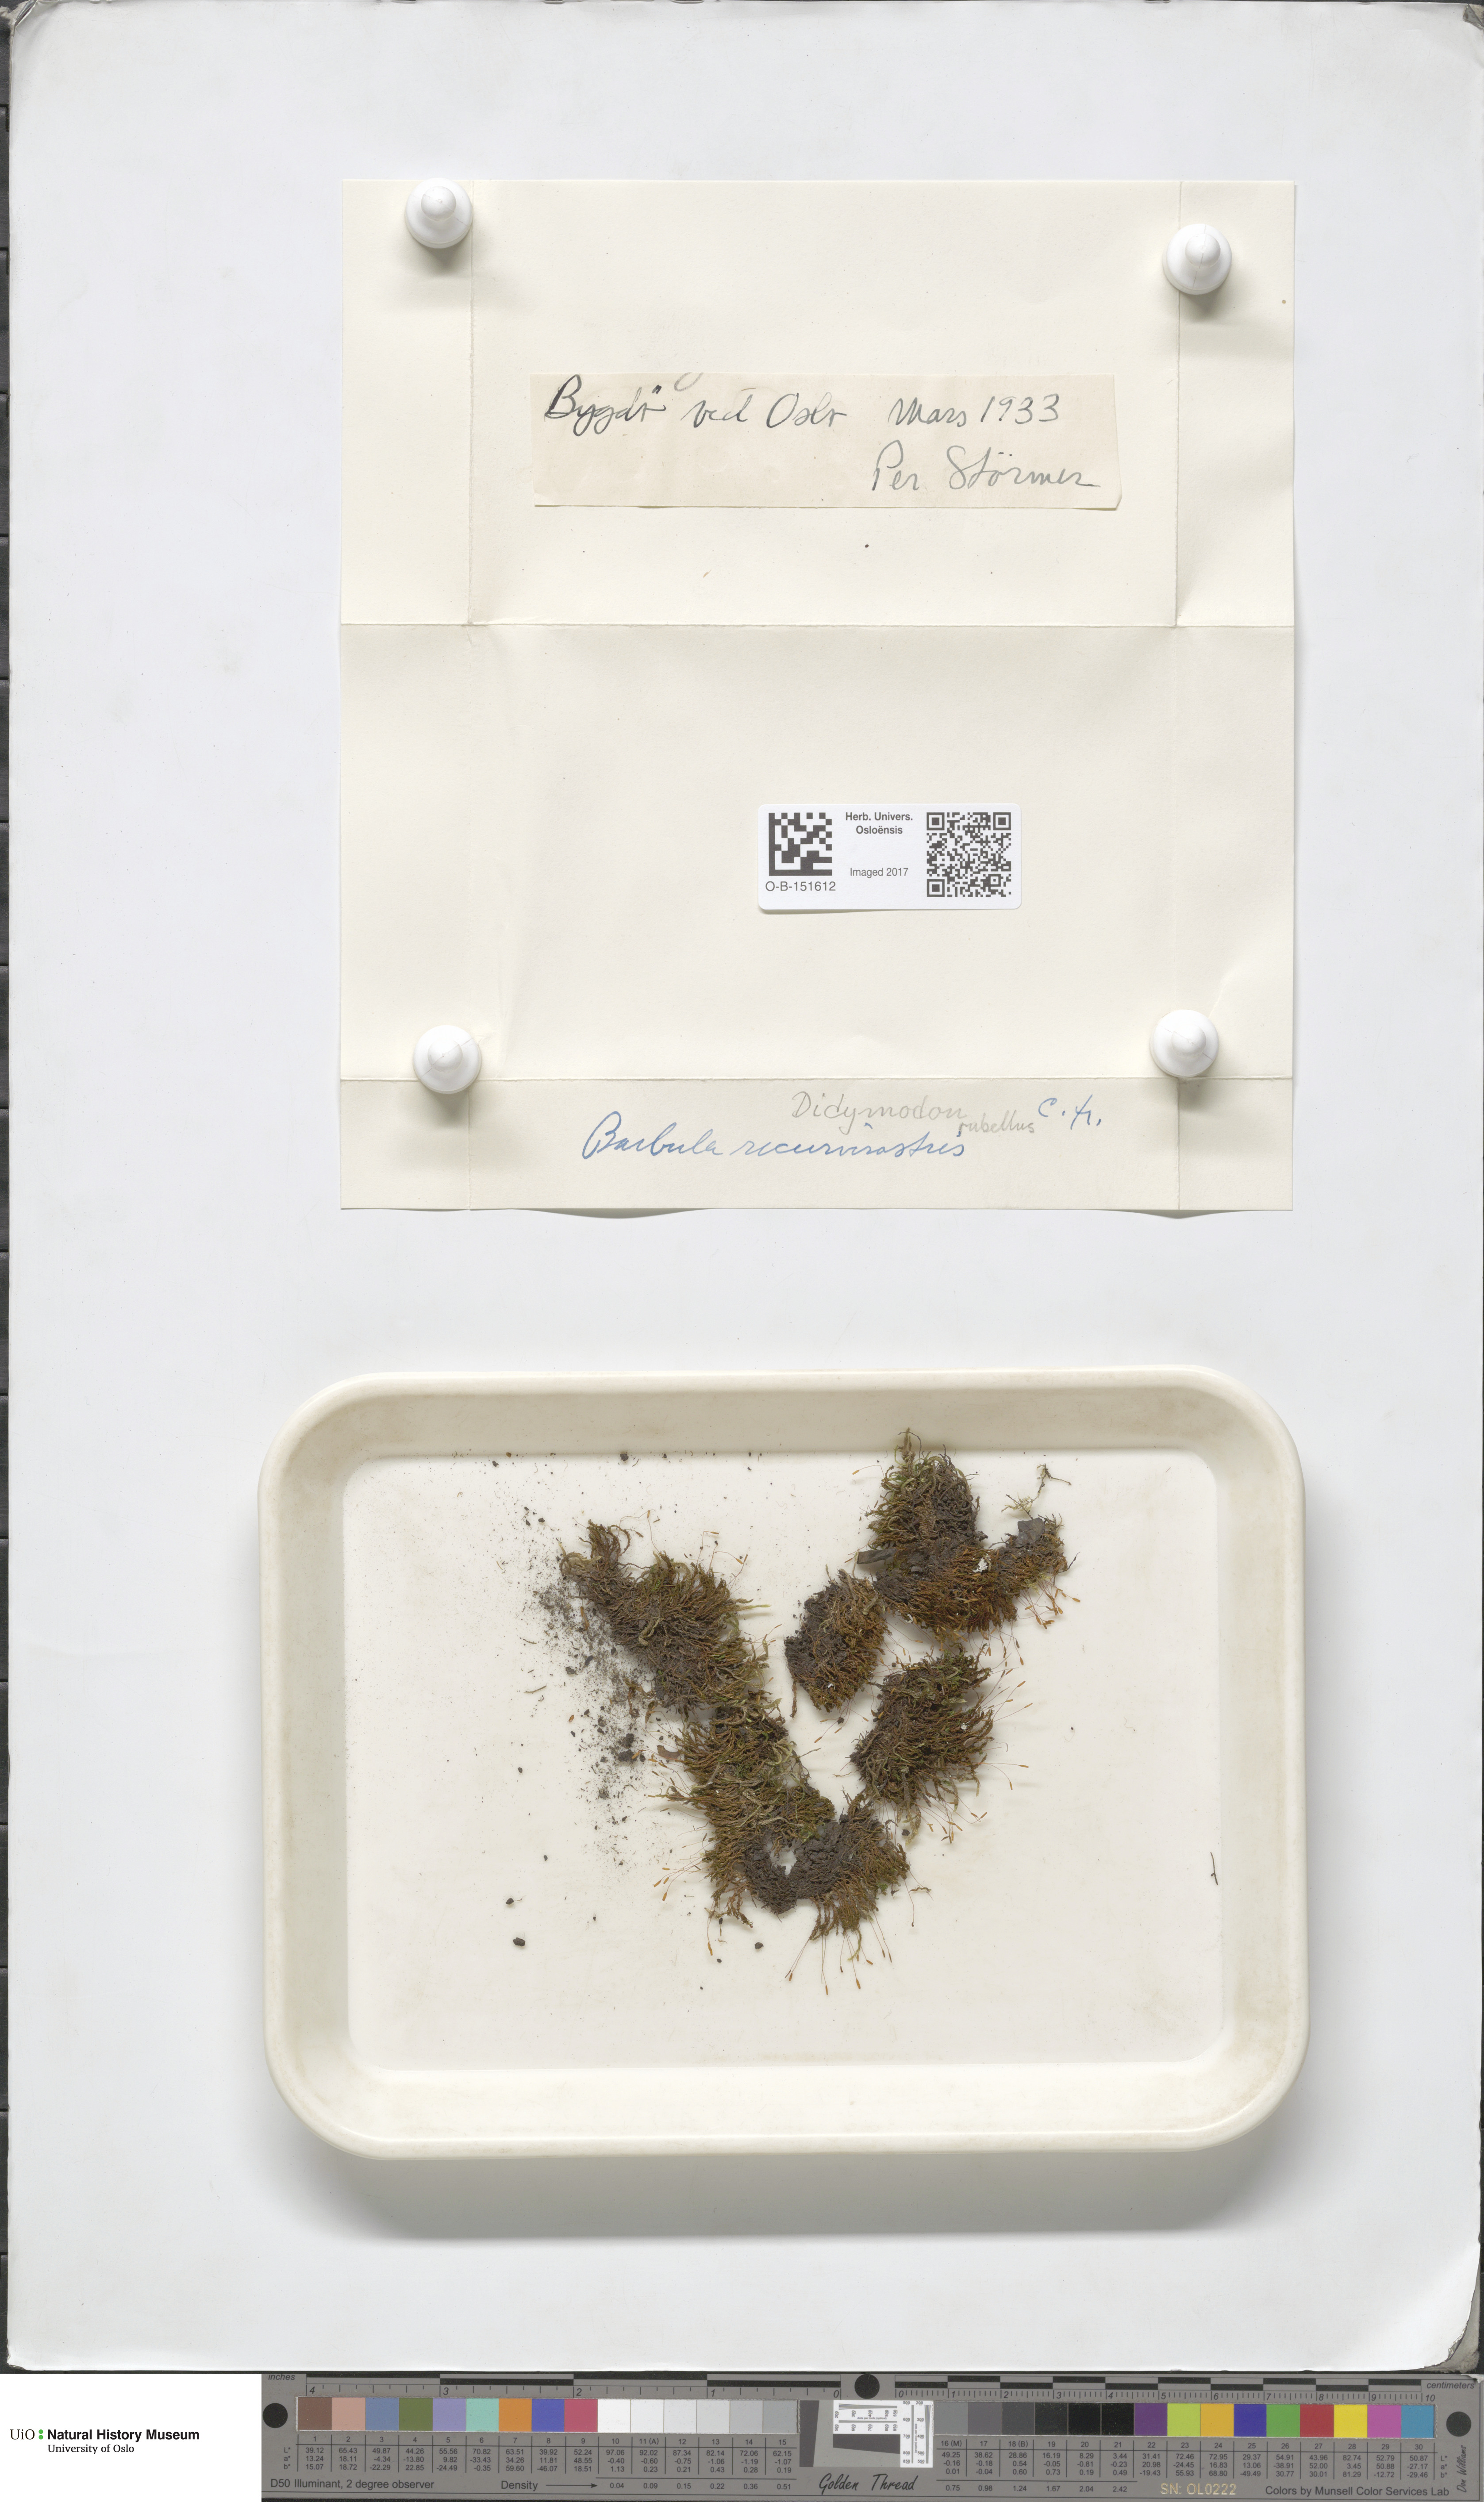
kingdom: Plantae
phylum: Bryophyta
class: Bryopsida
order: Pottiales
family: Pottiaceae
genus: Bryoerythrophyllum
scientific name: Bryoerythrophyllum recurvirostrum
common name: Red beard moss
